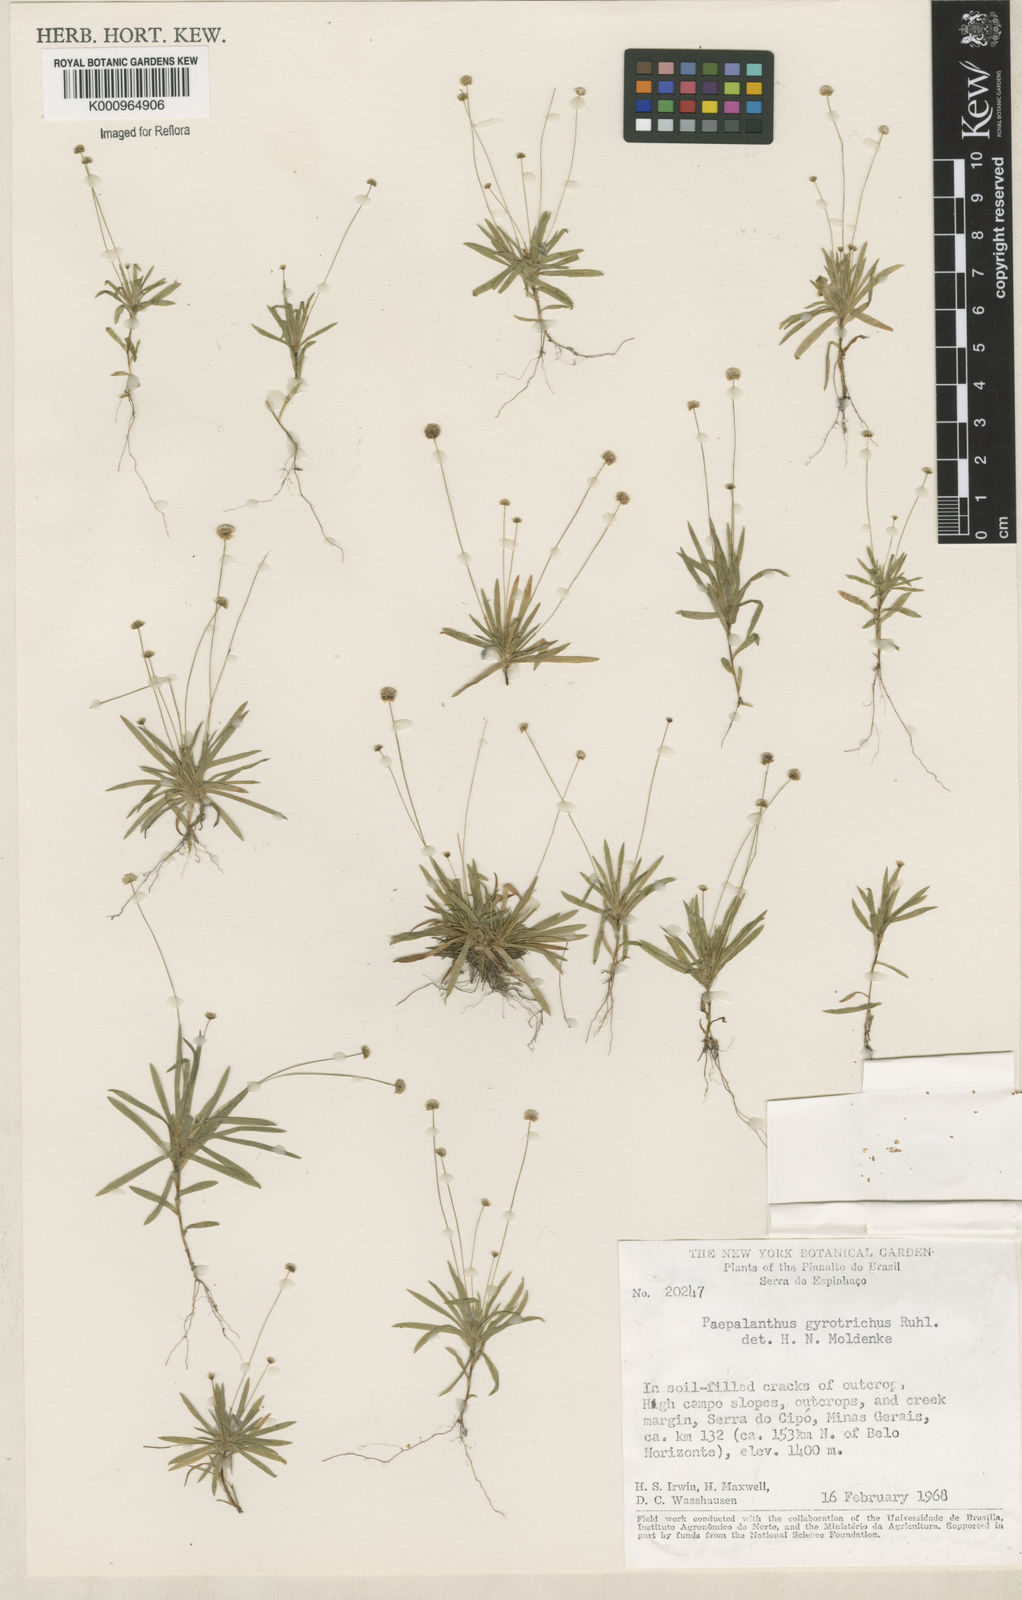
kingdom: Plantae
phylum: Tracheophyta
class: Liliopsida
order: Poales
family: Eriocaulaceae
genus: Paepalanthus
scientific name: Paepalanthus gyrotrichus
